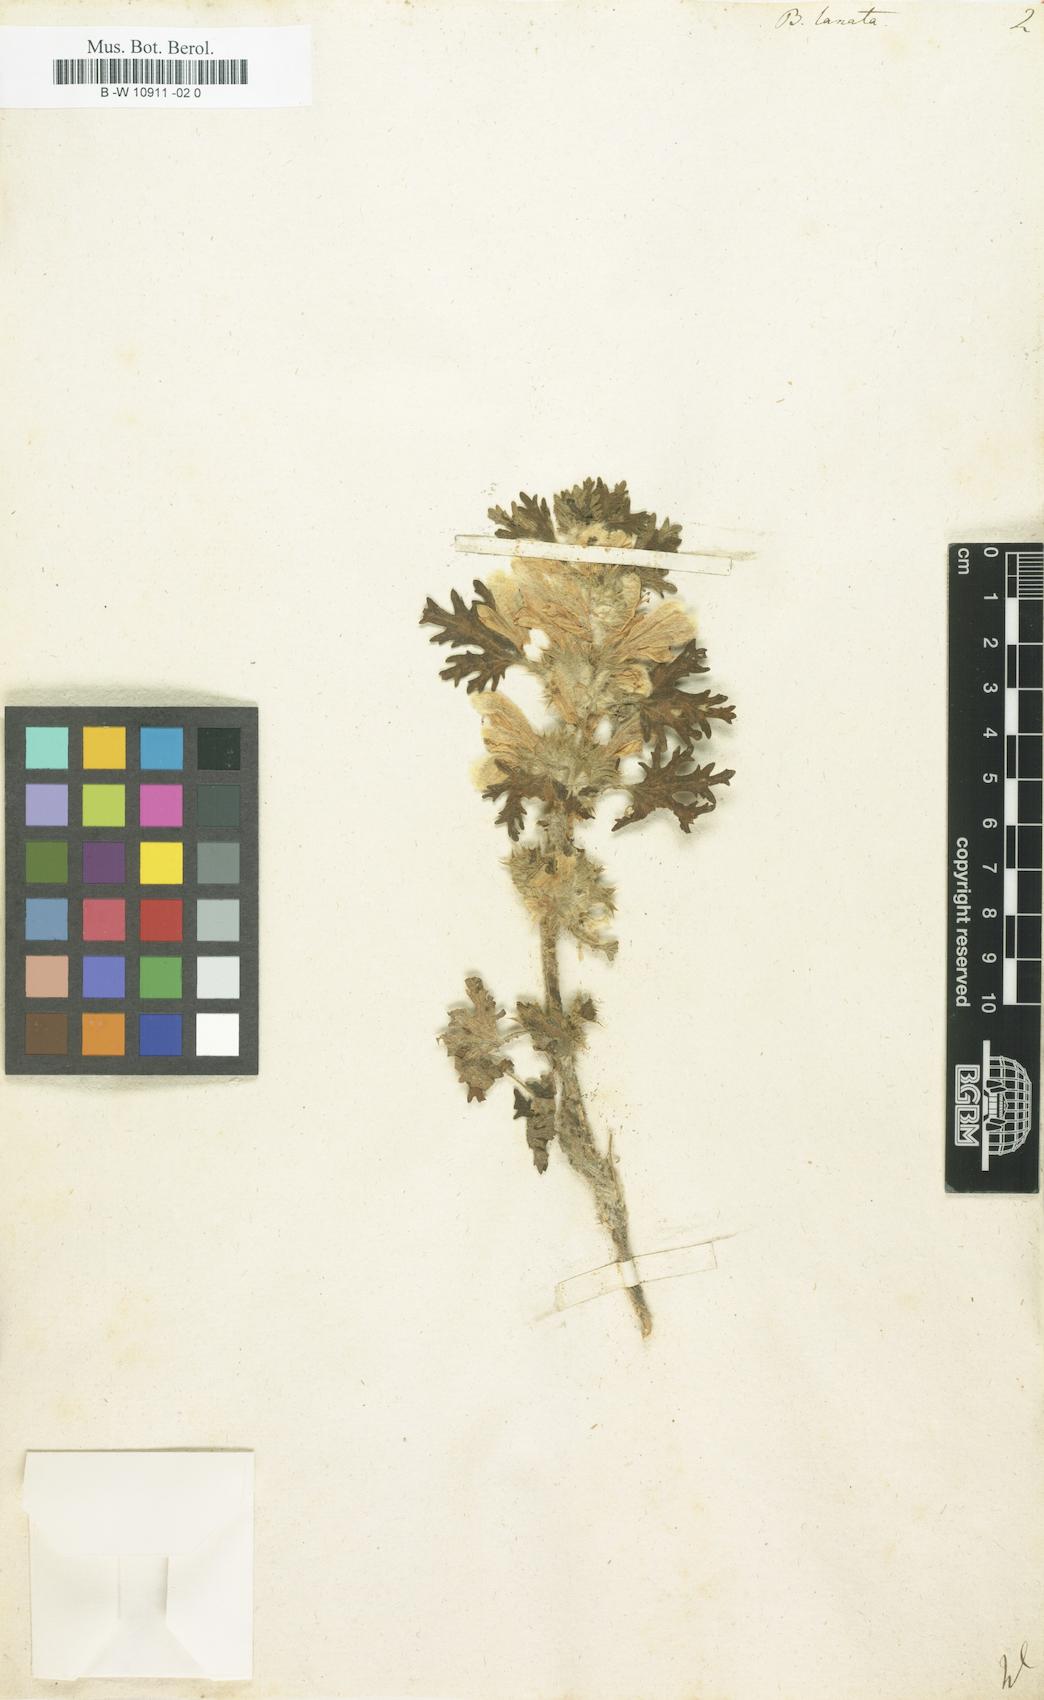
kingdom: Plantae
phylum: Tracheophyta
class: Magnoliopsida
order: Lamiales
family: Lamiaceae
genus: Ballota
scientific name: Ballota lanata
